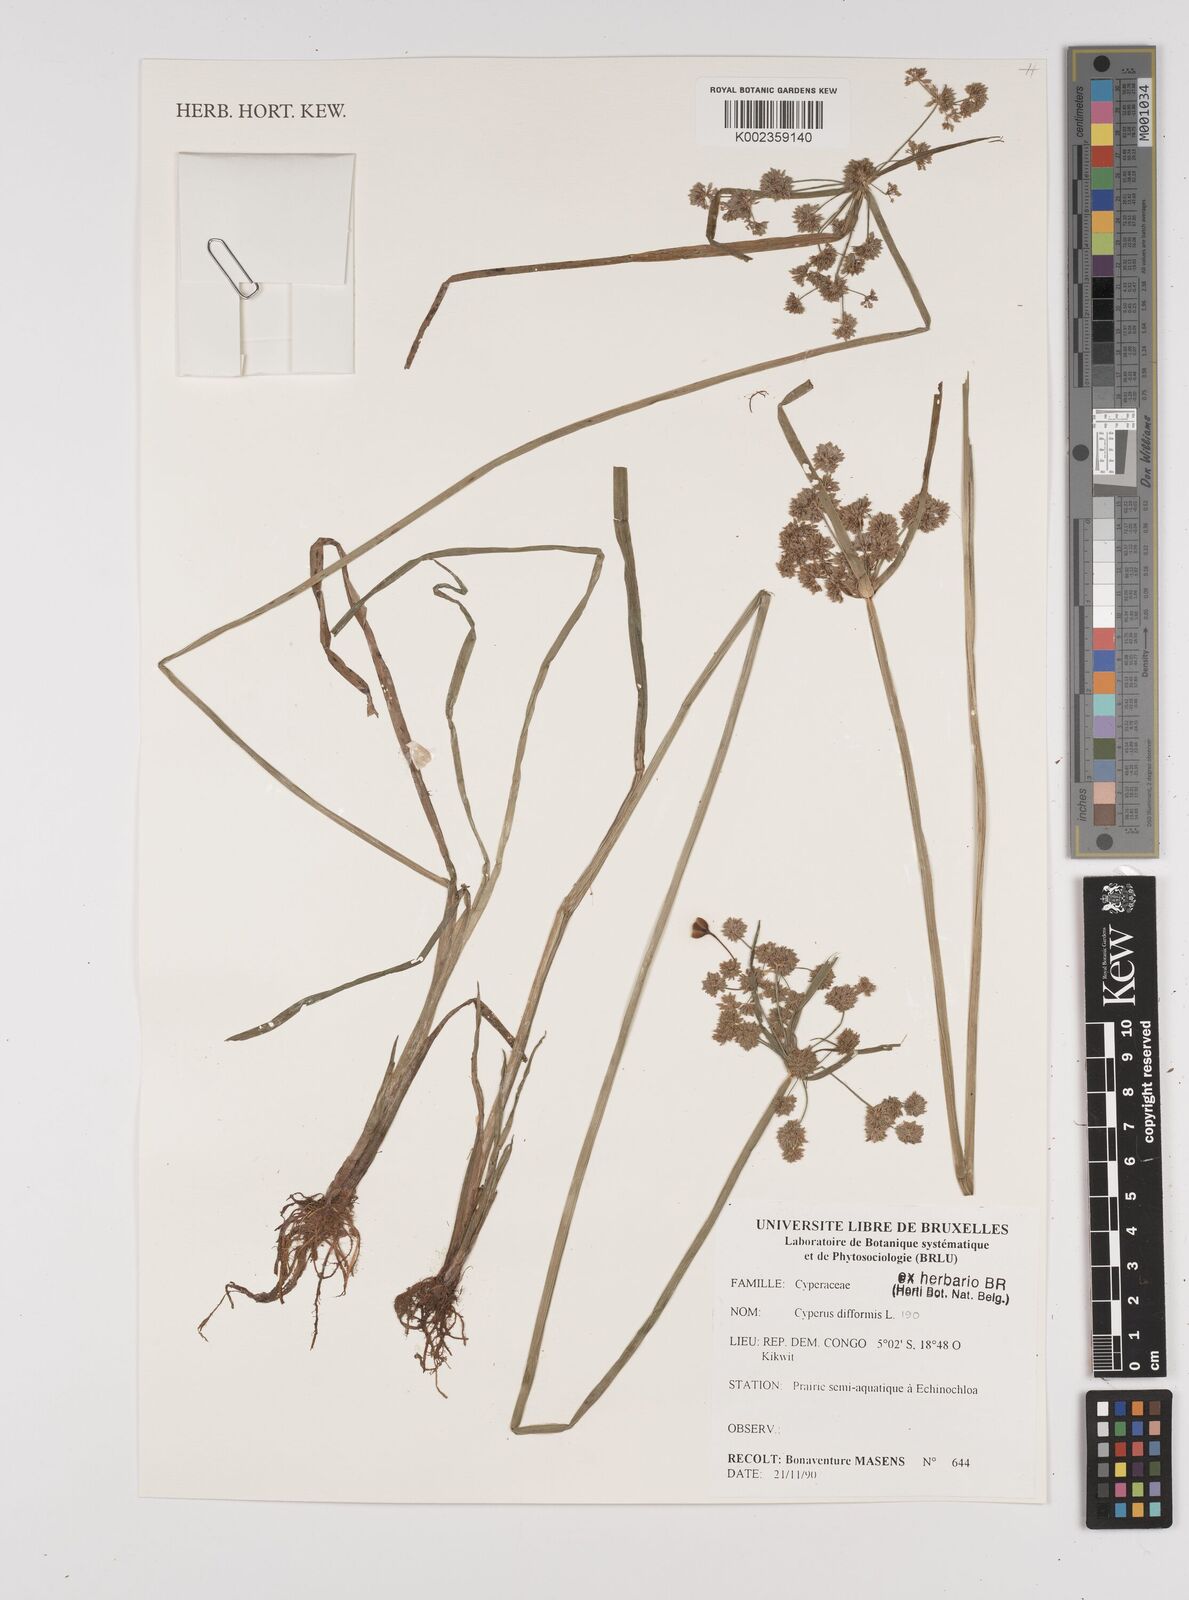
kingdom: Plantae
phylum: Tracheophyta
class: Liliopsida
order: Poales
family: Cyperaceae
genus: Cyperus
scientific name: Cyperus difformis
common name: Variable flatsedge
